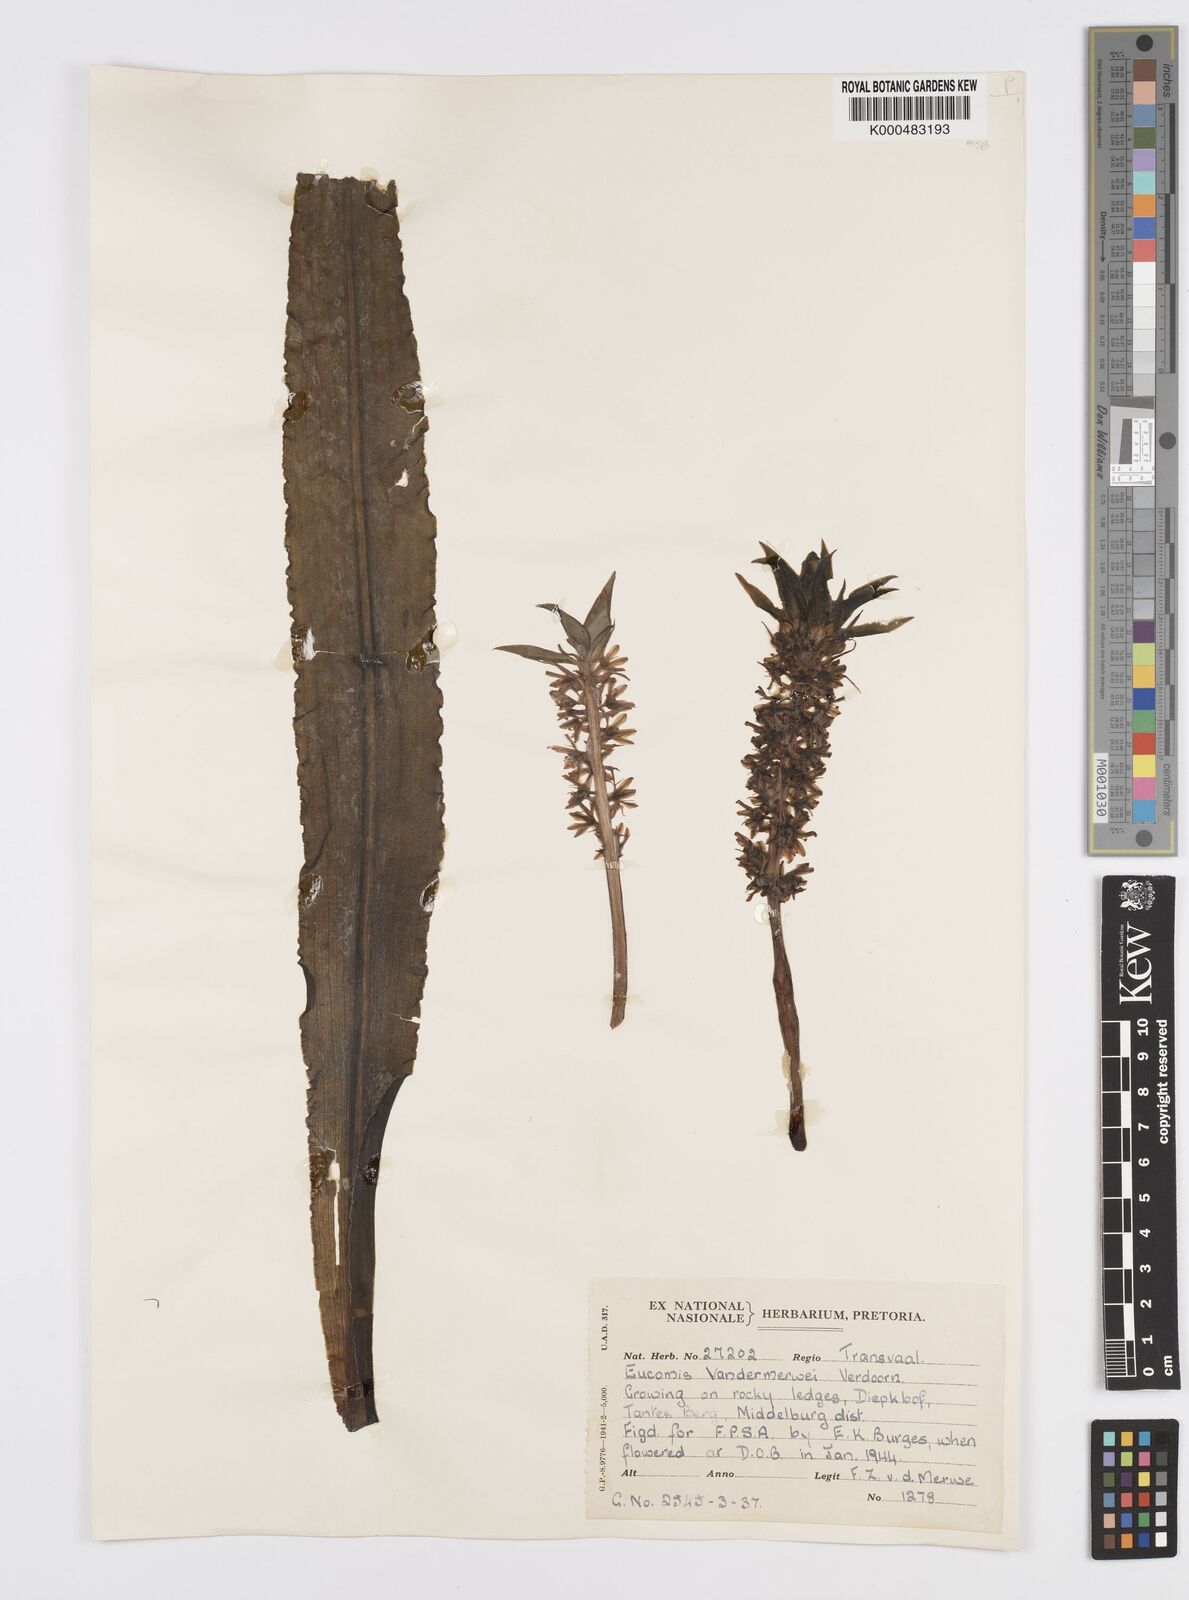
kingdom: Plantae
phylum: Tracheophyta
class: Liliopsida
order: Asparagales
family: Asparagaceae
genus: Eucomis
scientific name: Eucomis vandermerwei
